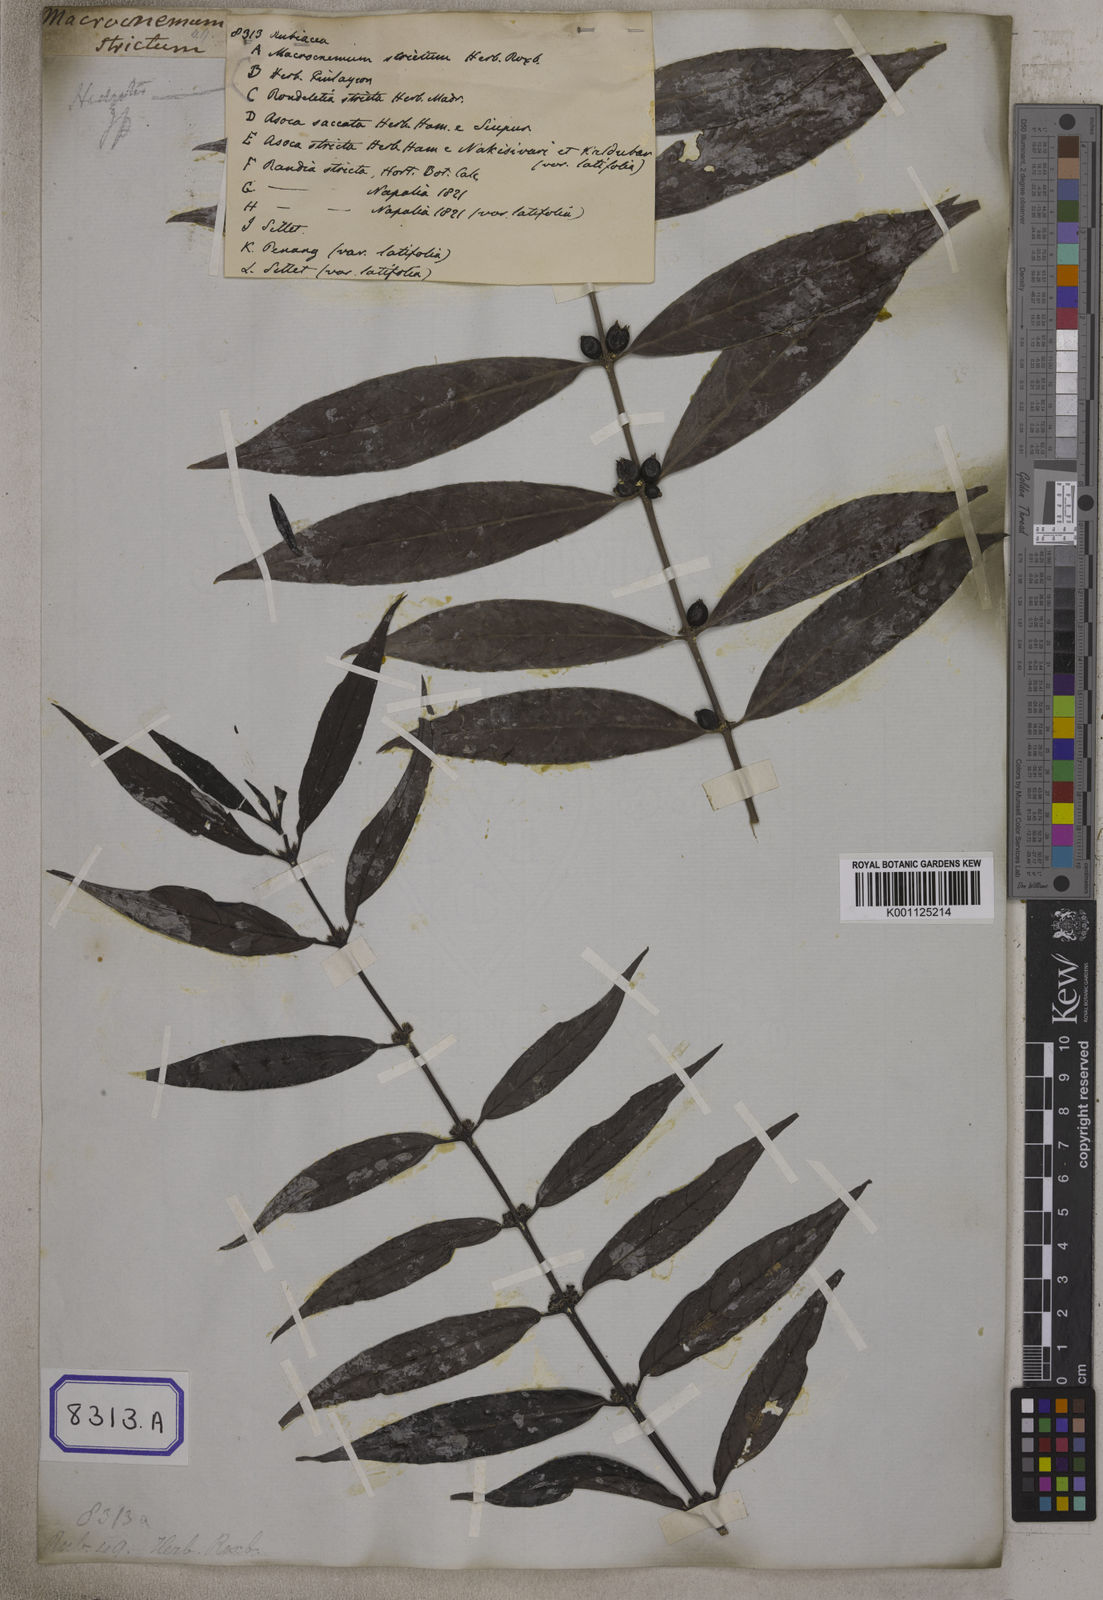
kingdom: Plantae
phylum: Tracheophyta
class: Magnoliopsida
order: Gentianales
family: Rubiaceae
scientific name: Rubiaceae
